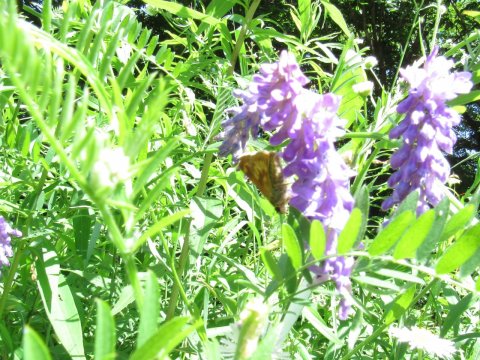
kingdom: Animalia
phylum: Arthropoda
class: Insecta
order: Lepidoptera
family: Hesperiidae
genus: Polites
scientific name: Polites
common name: Long Dash Skipper
